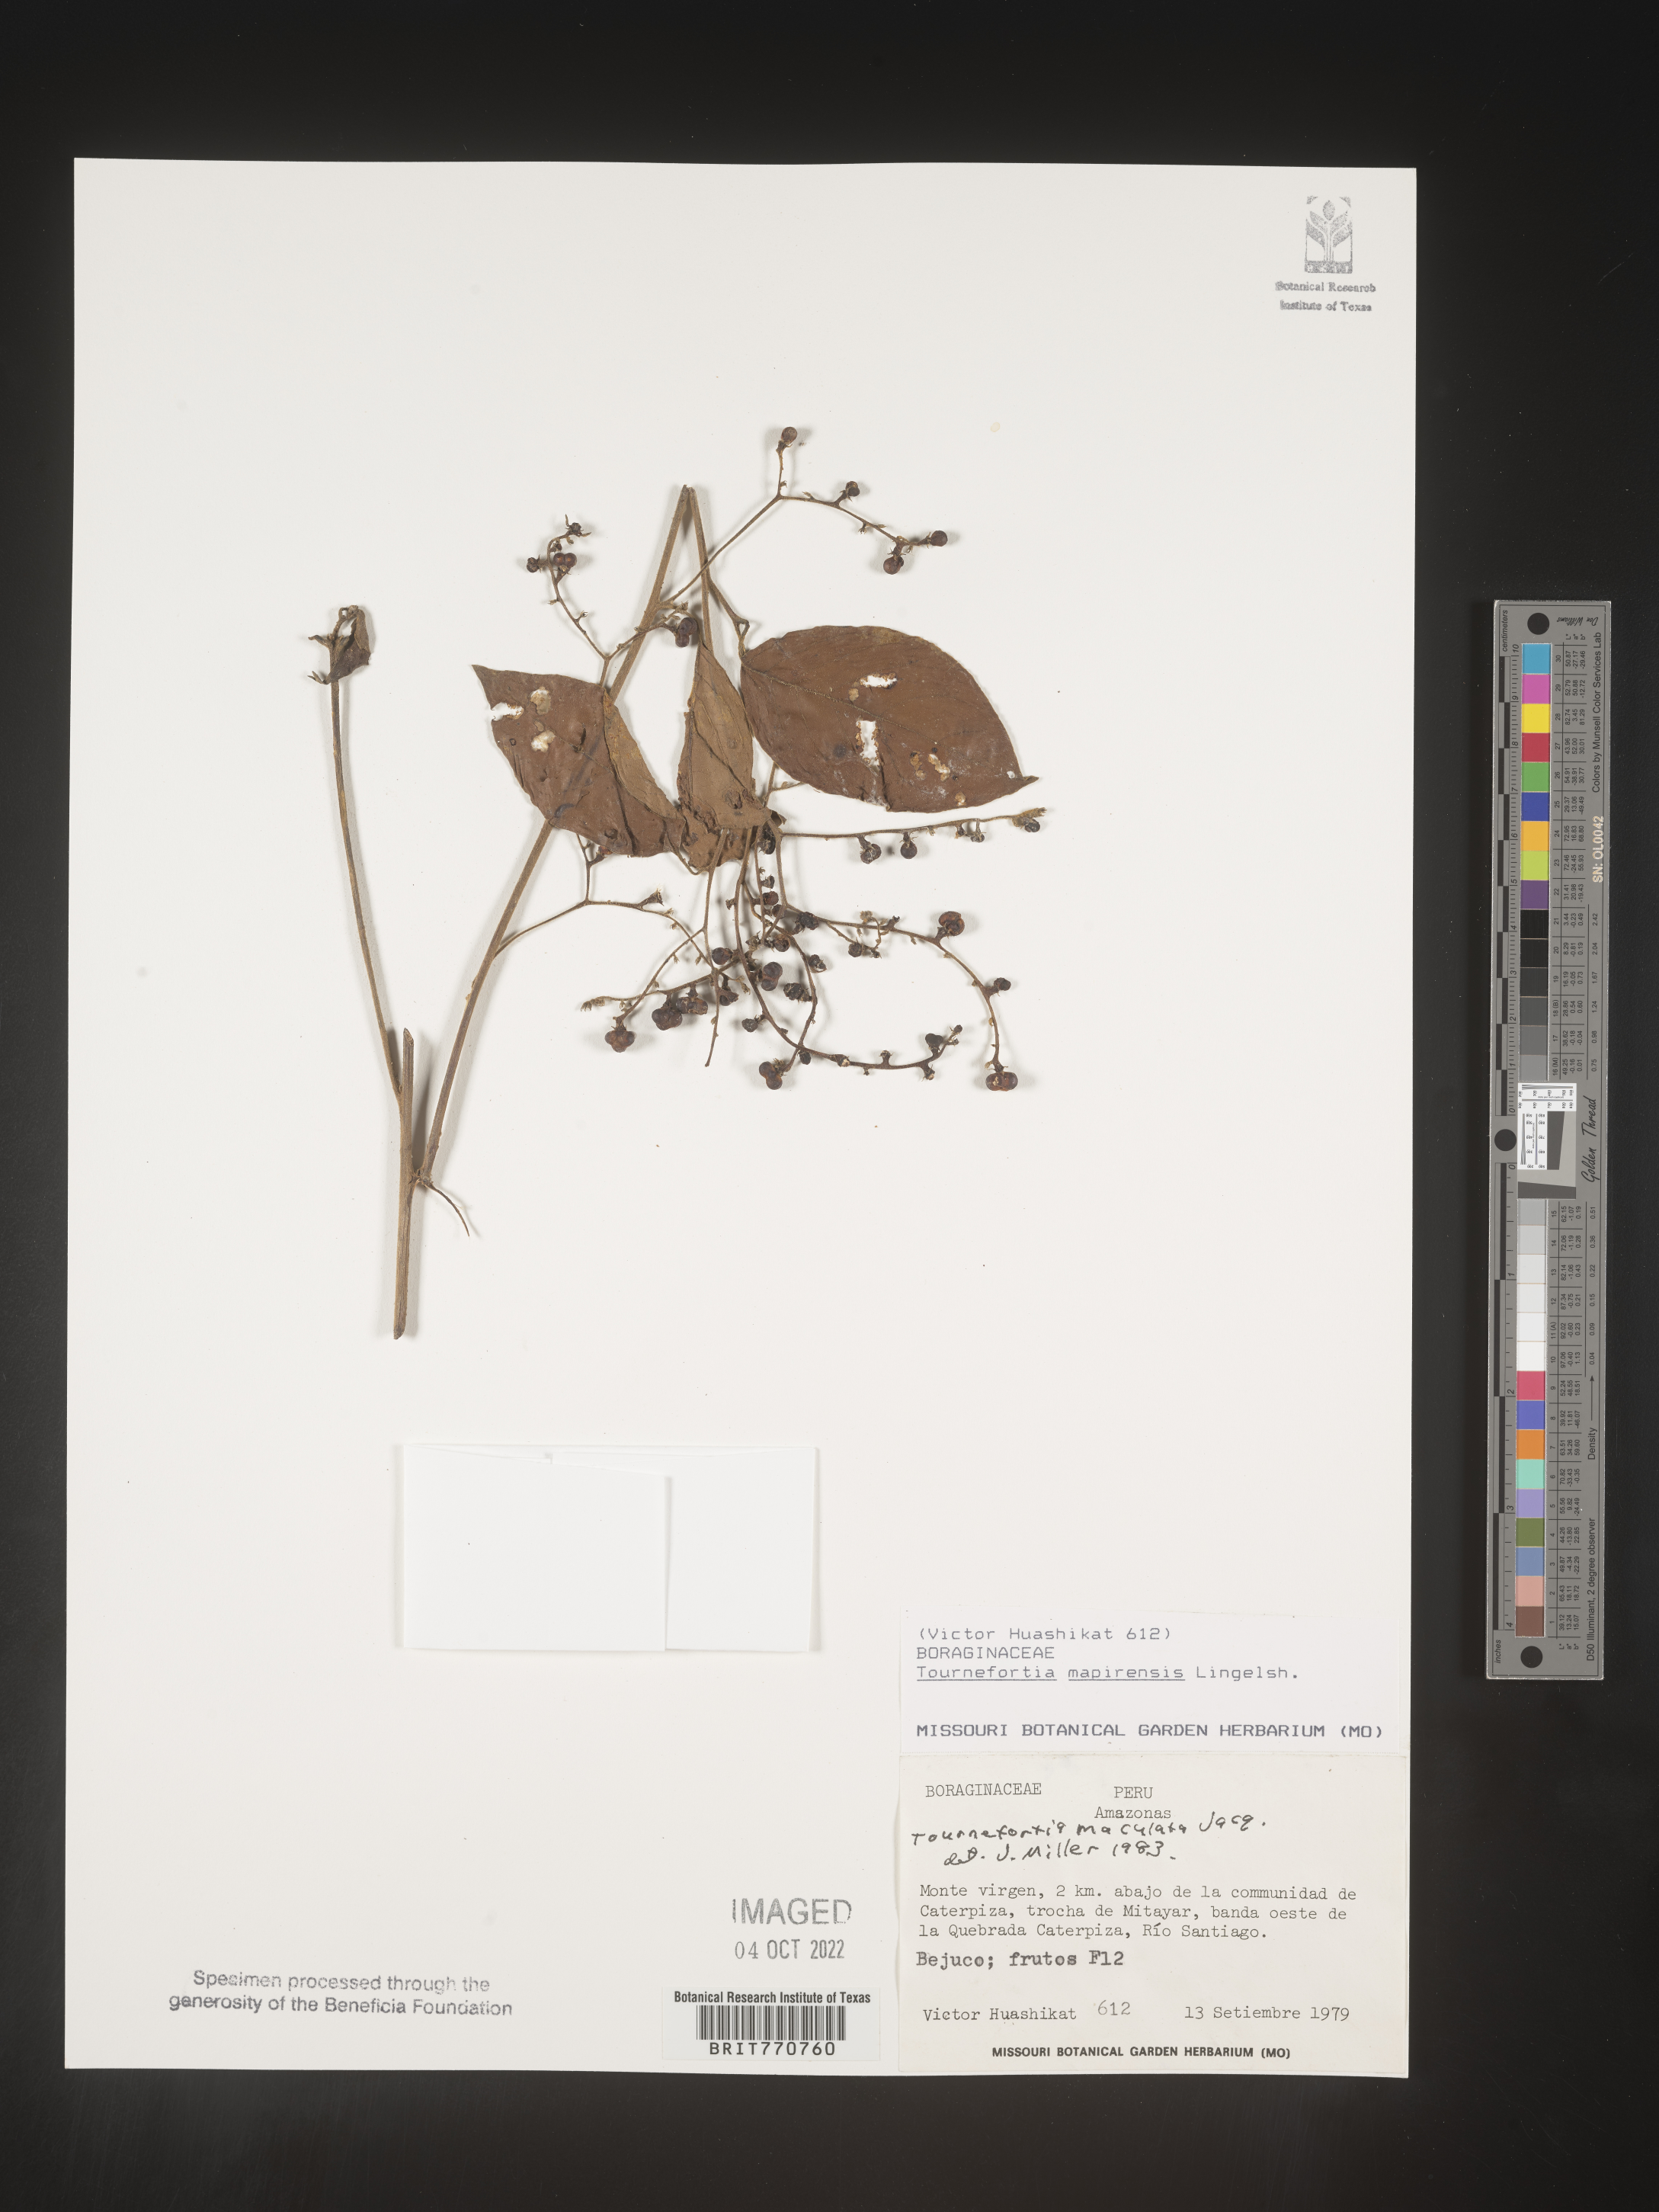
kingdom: Plantae
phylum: Tracheophyta
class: Magnoliopsida
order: Boraginales
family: Heliotropiaceae
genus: Tournefortia
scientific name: Tournefortia
